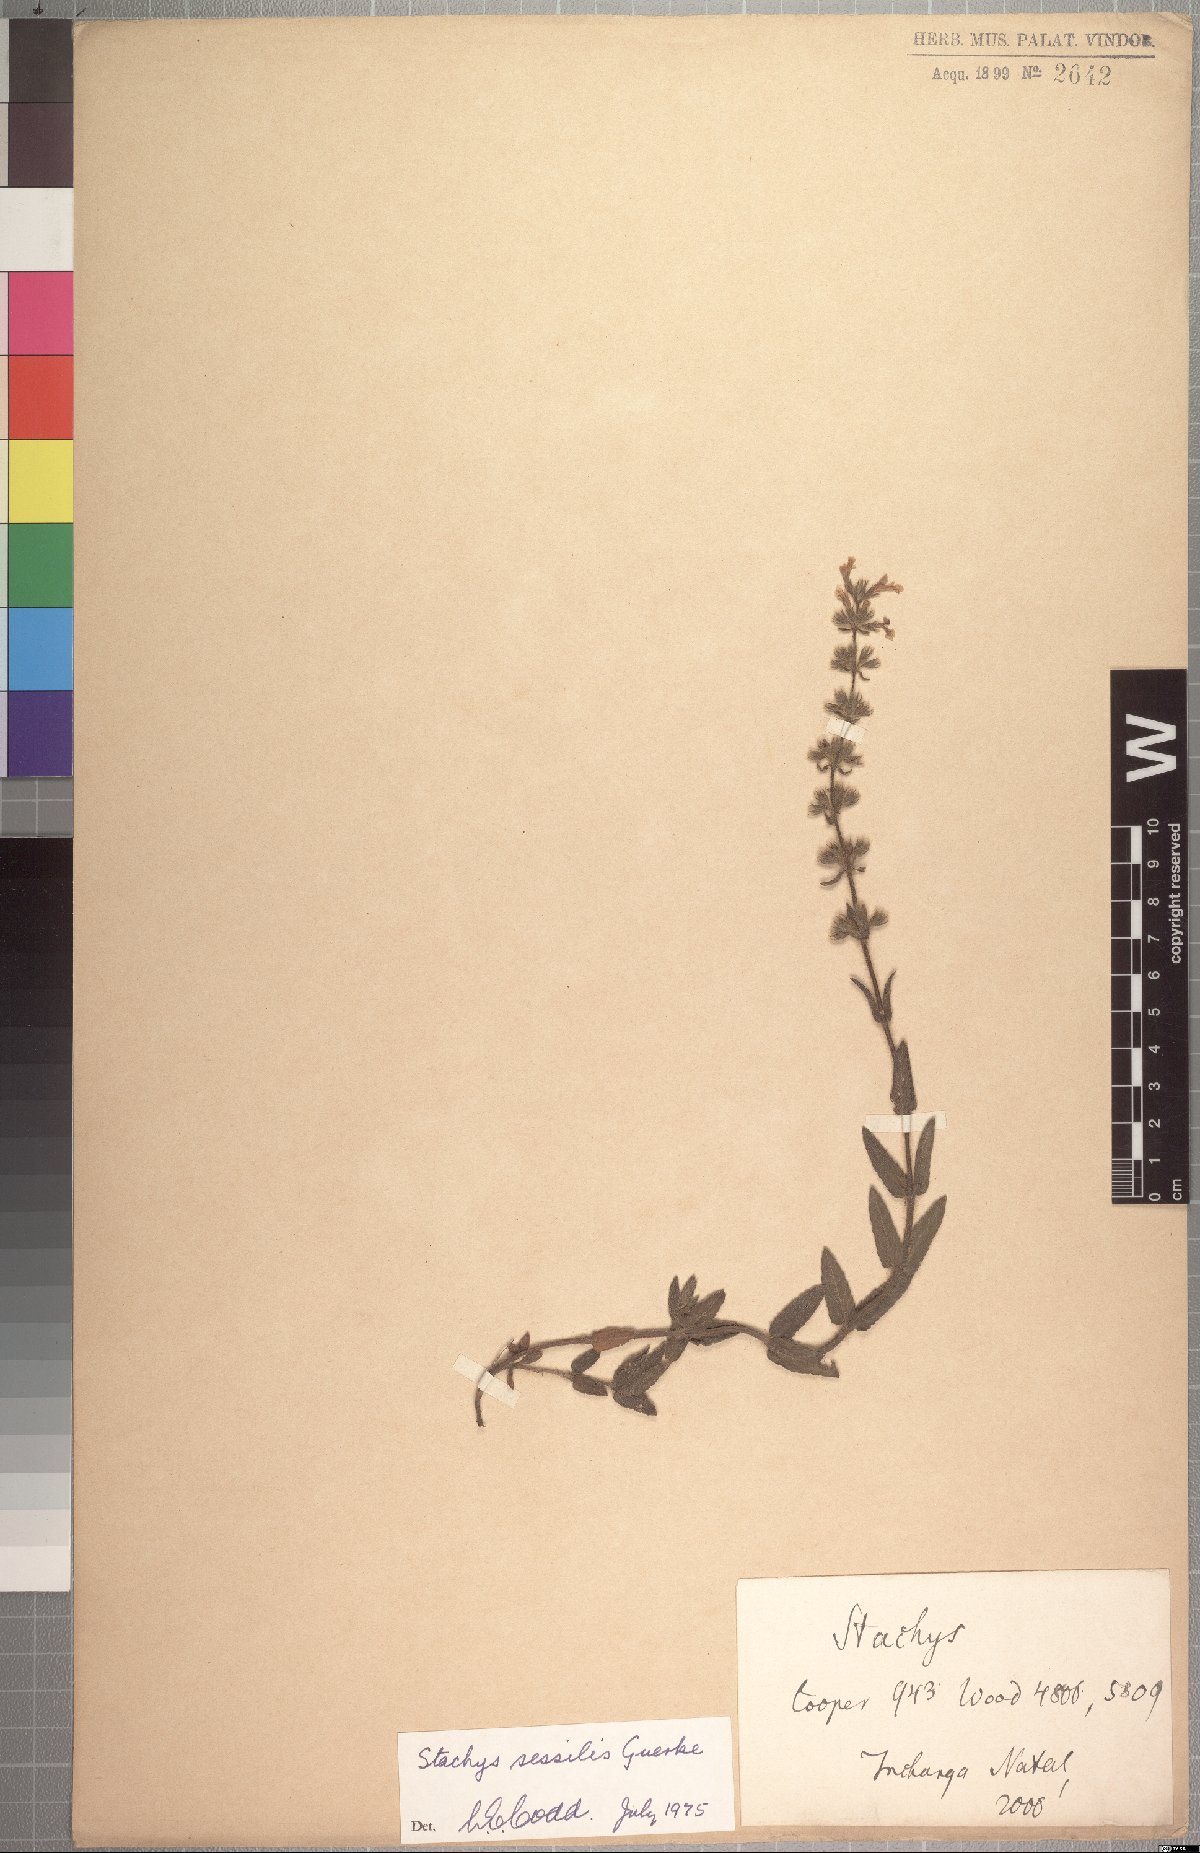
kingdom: Plantae
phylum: Tracheophyta
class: Magnoliopsida
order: Lamiales
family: Lamiaceae
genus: Stachys
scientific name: Stachys sessilis
